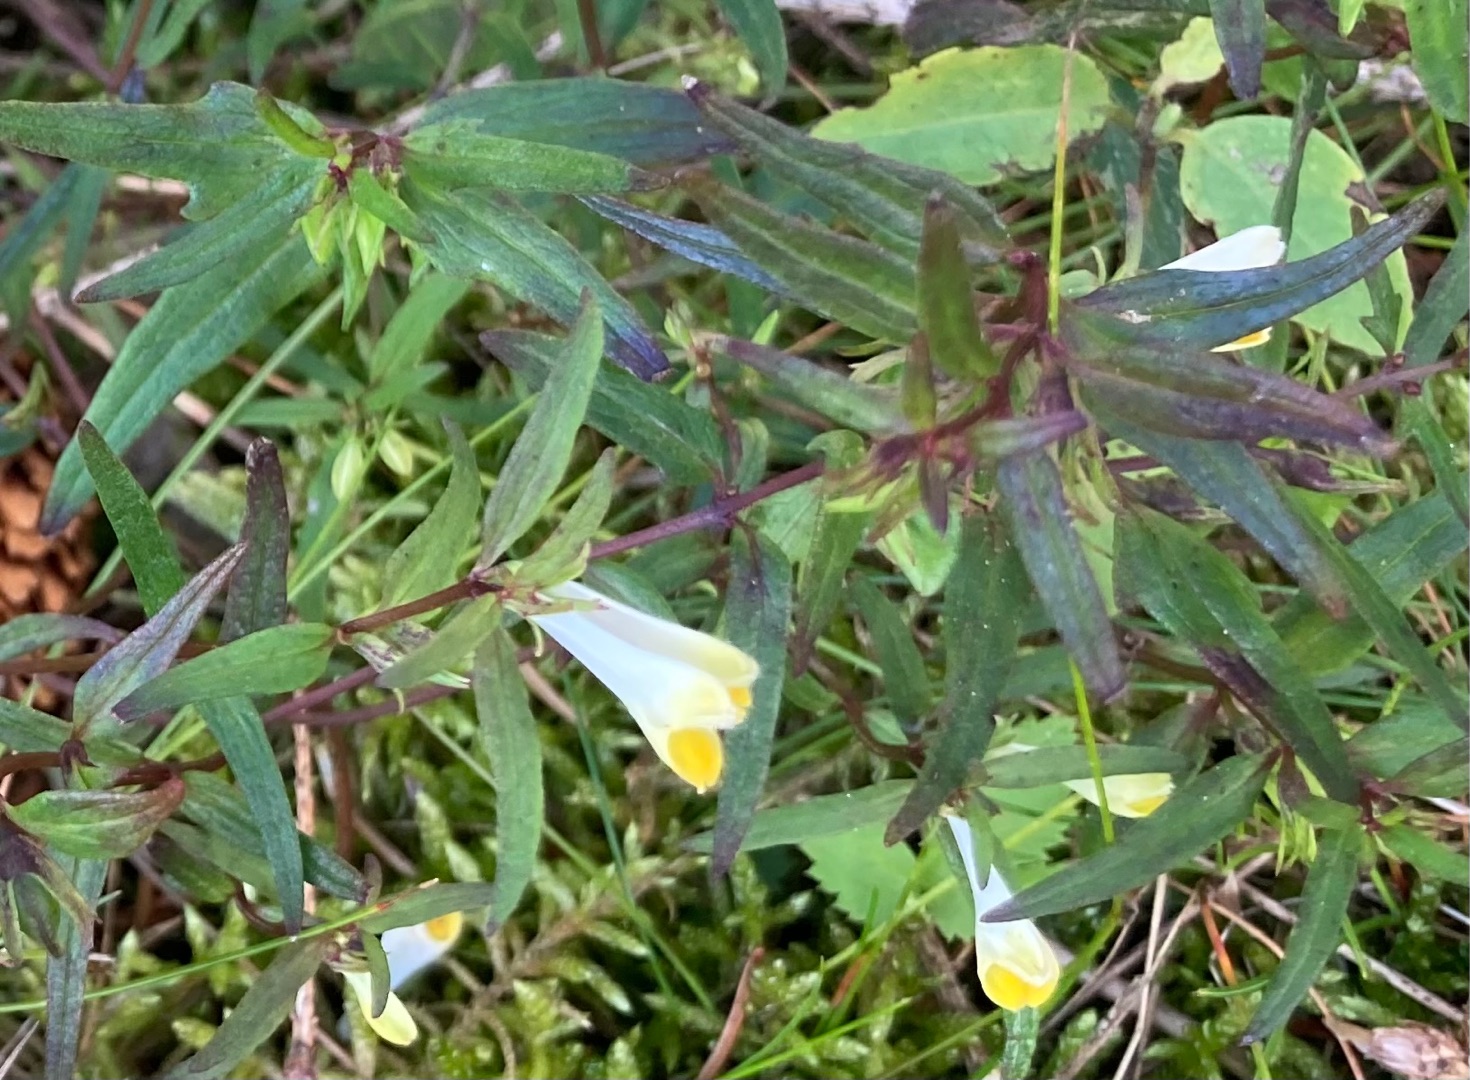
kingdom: Plantae
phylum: Tracheophyta
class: Magnoliopsida
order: Lamiales
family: Orobanchaceae
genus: Melampyrum
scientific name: Melampyrum pratense
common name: Almindelig kohvede
